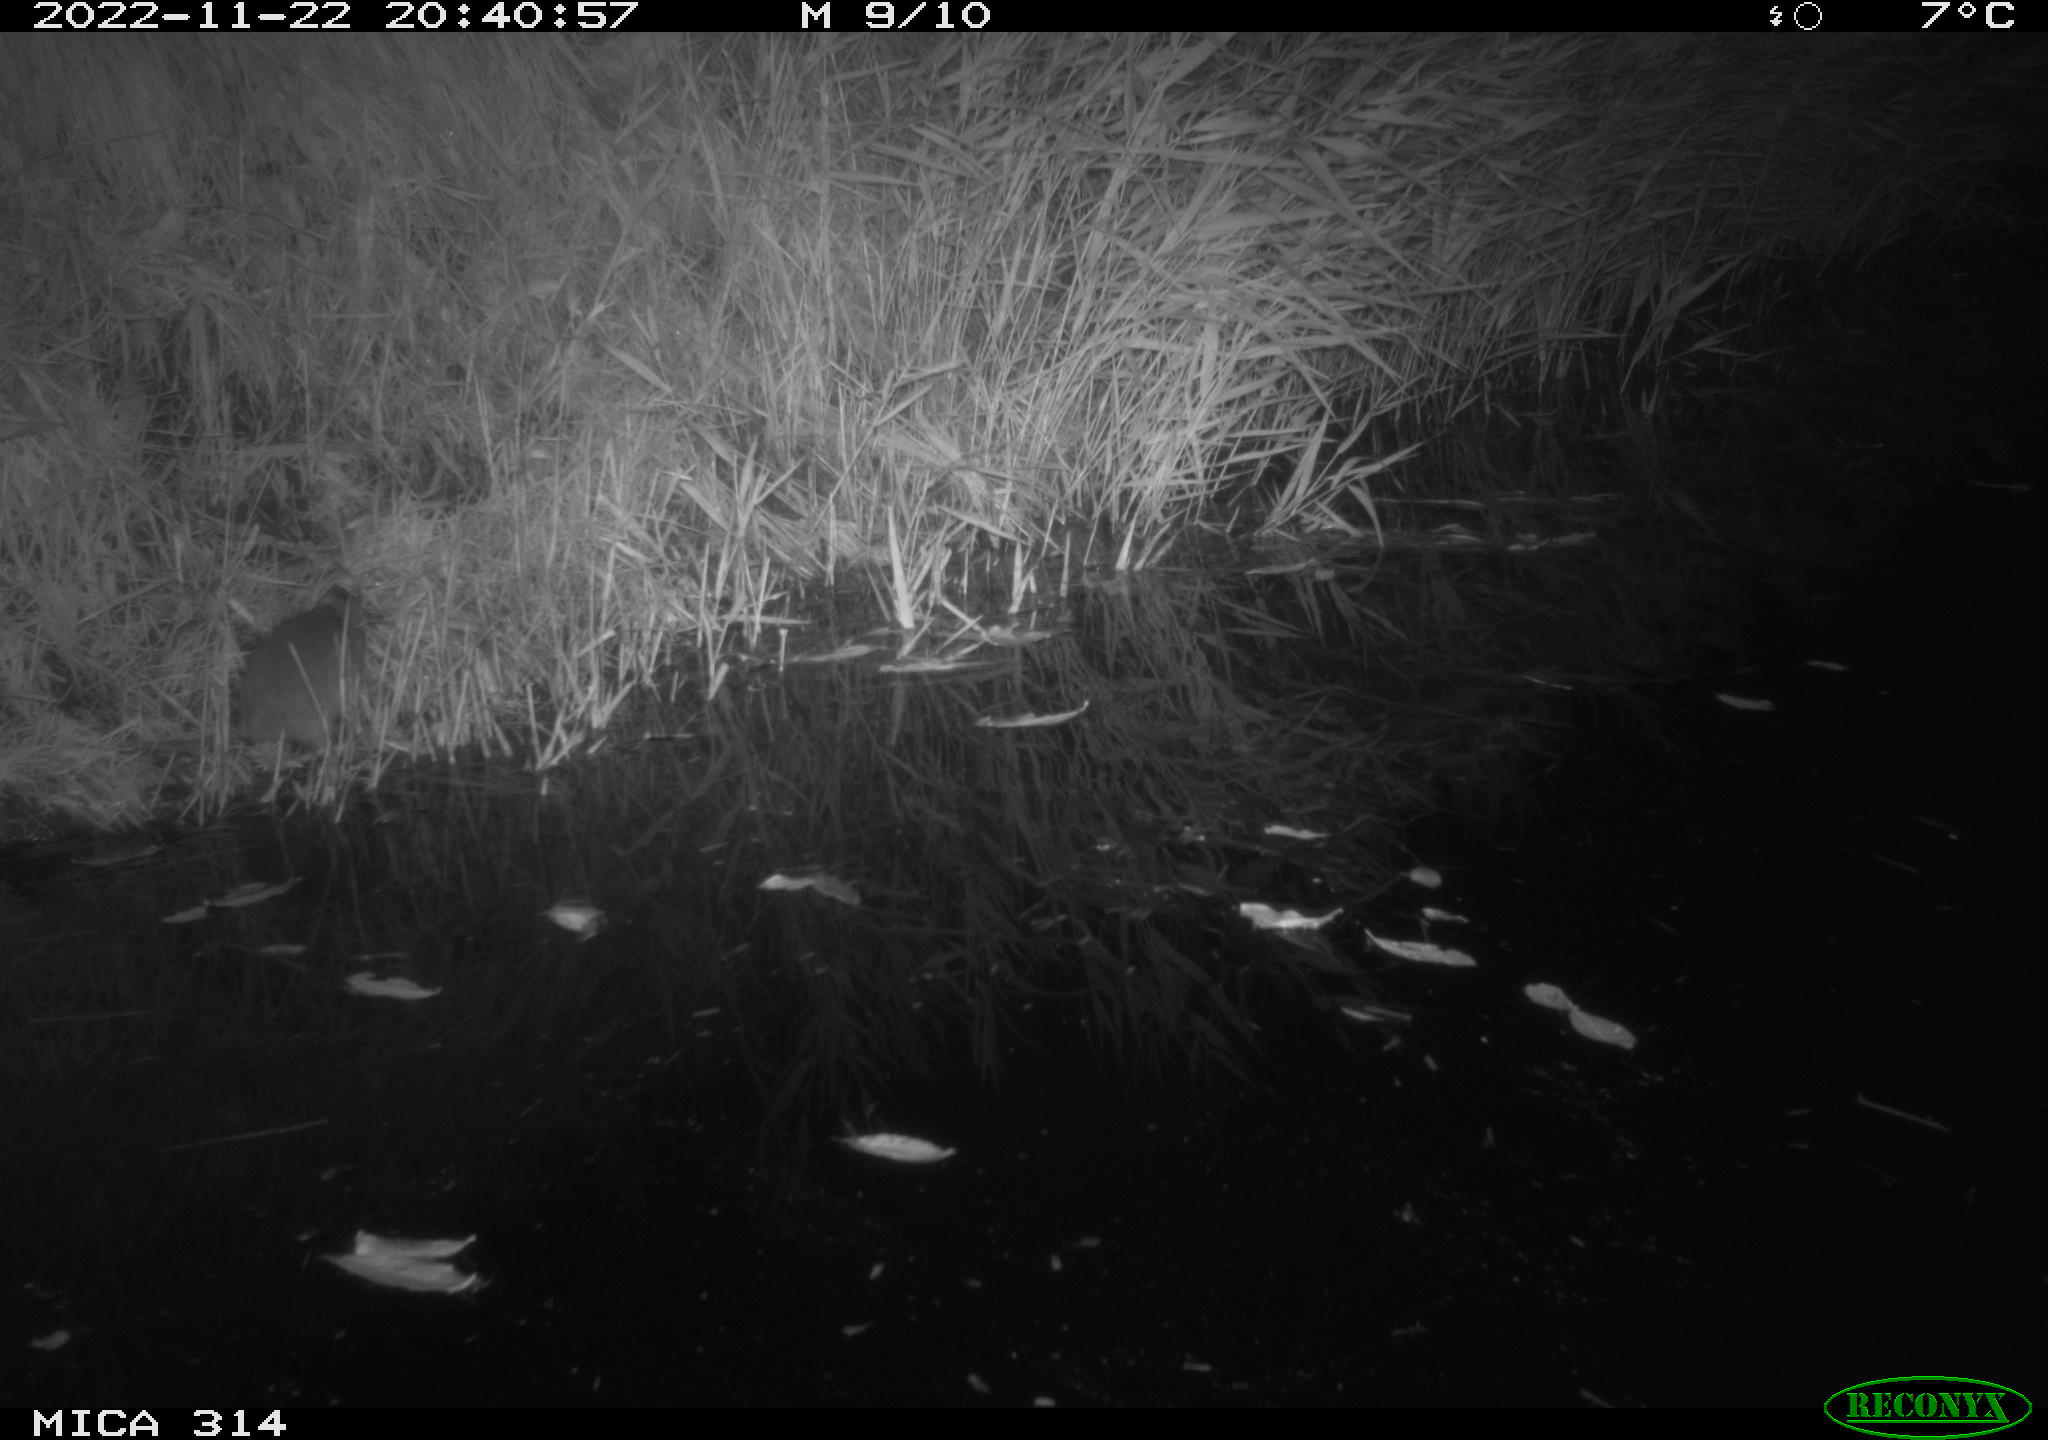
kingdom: Animalia
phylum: Chordata
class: Mammalia
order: Rodentia
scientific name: Rodentia
